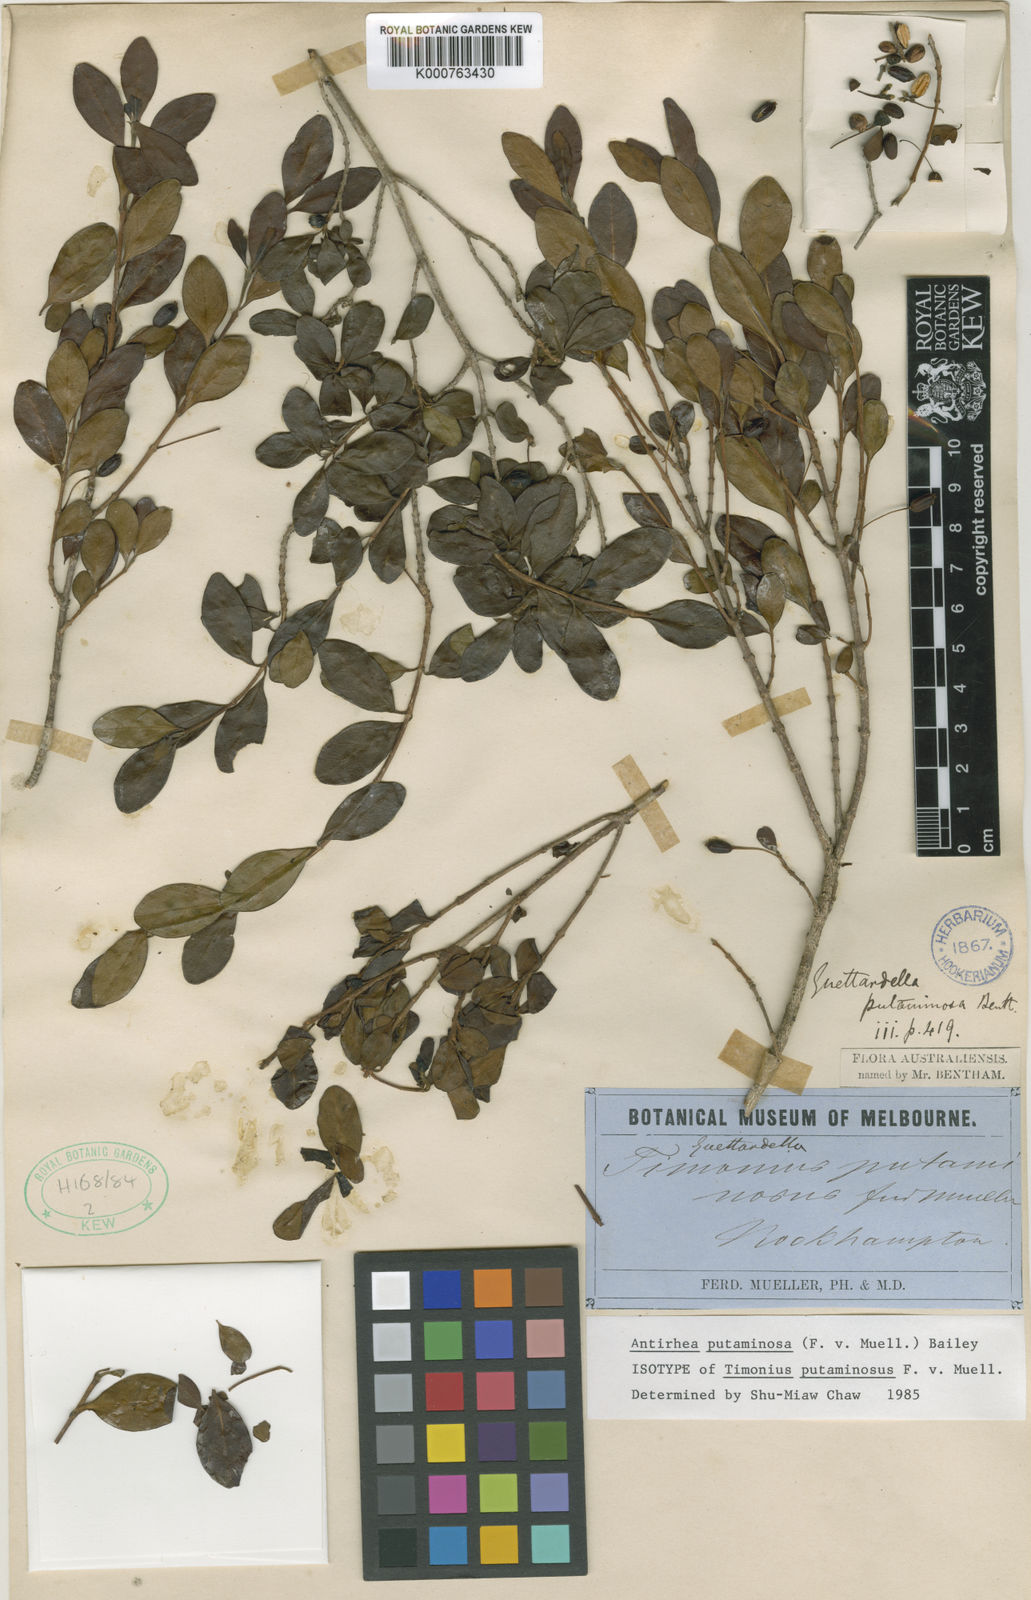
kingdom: Plantae
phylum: Tracheophyta
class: Magnoliopsida
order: Gentianales
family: Rubiaceae
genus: Antirhea
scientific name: Antirhea
